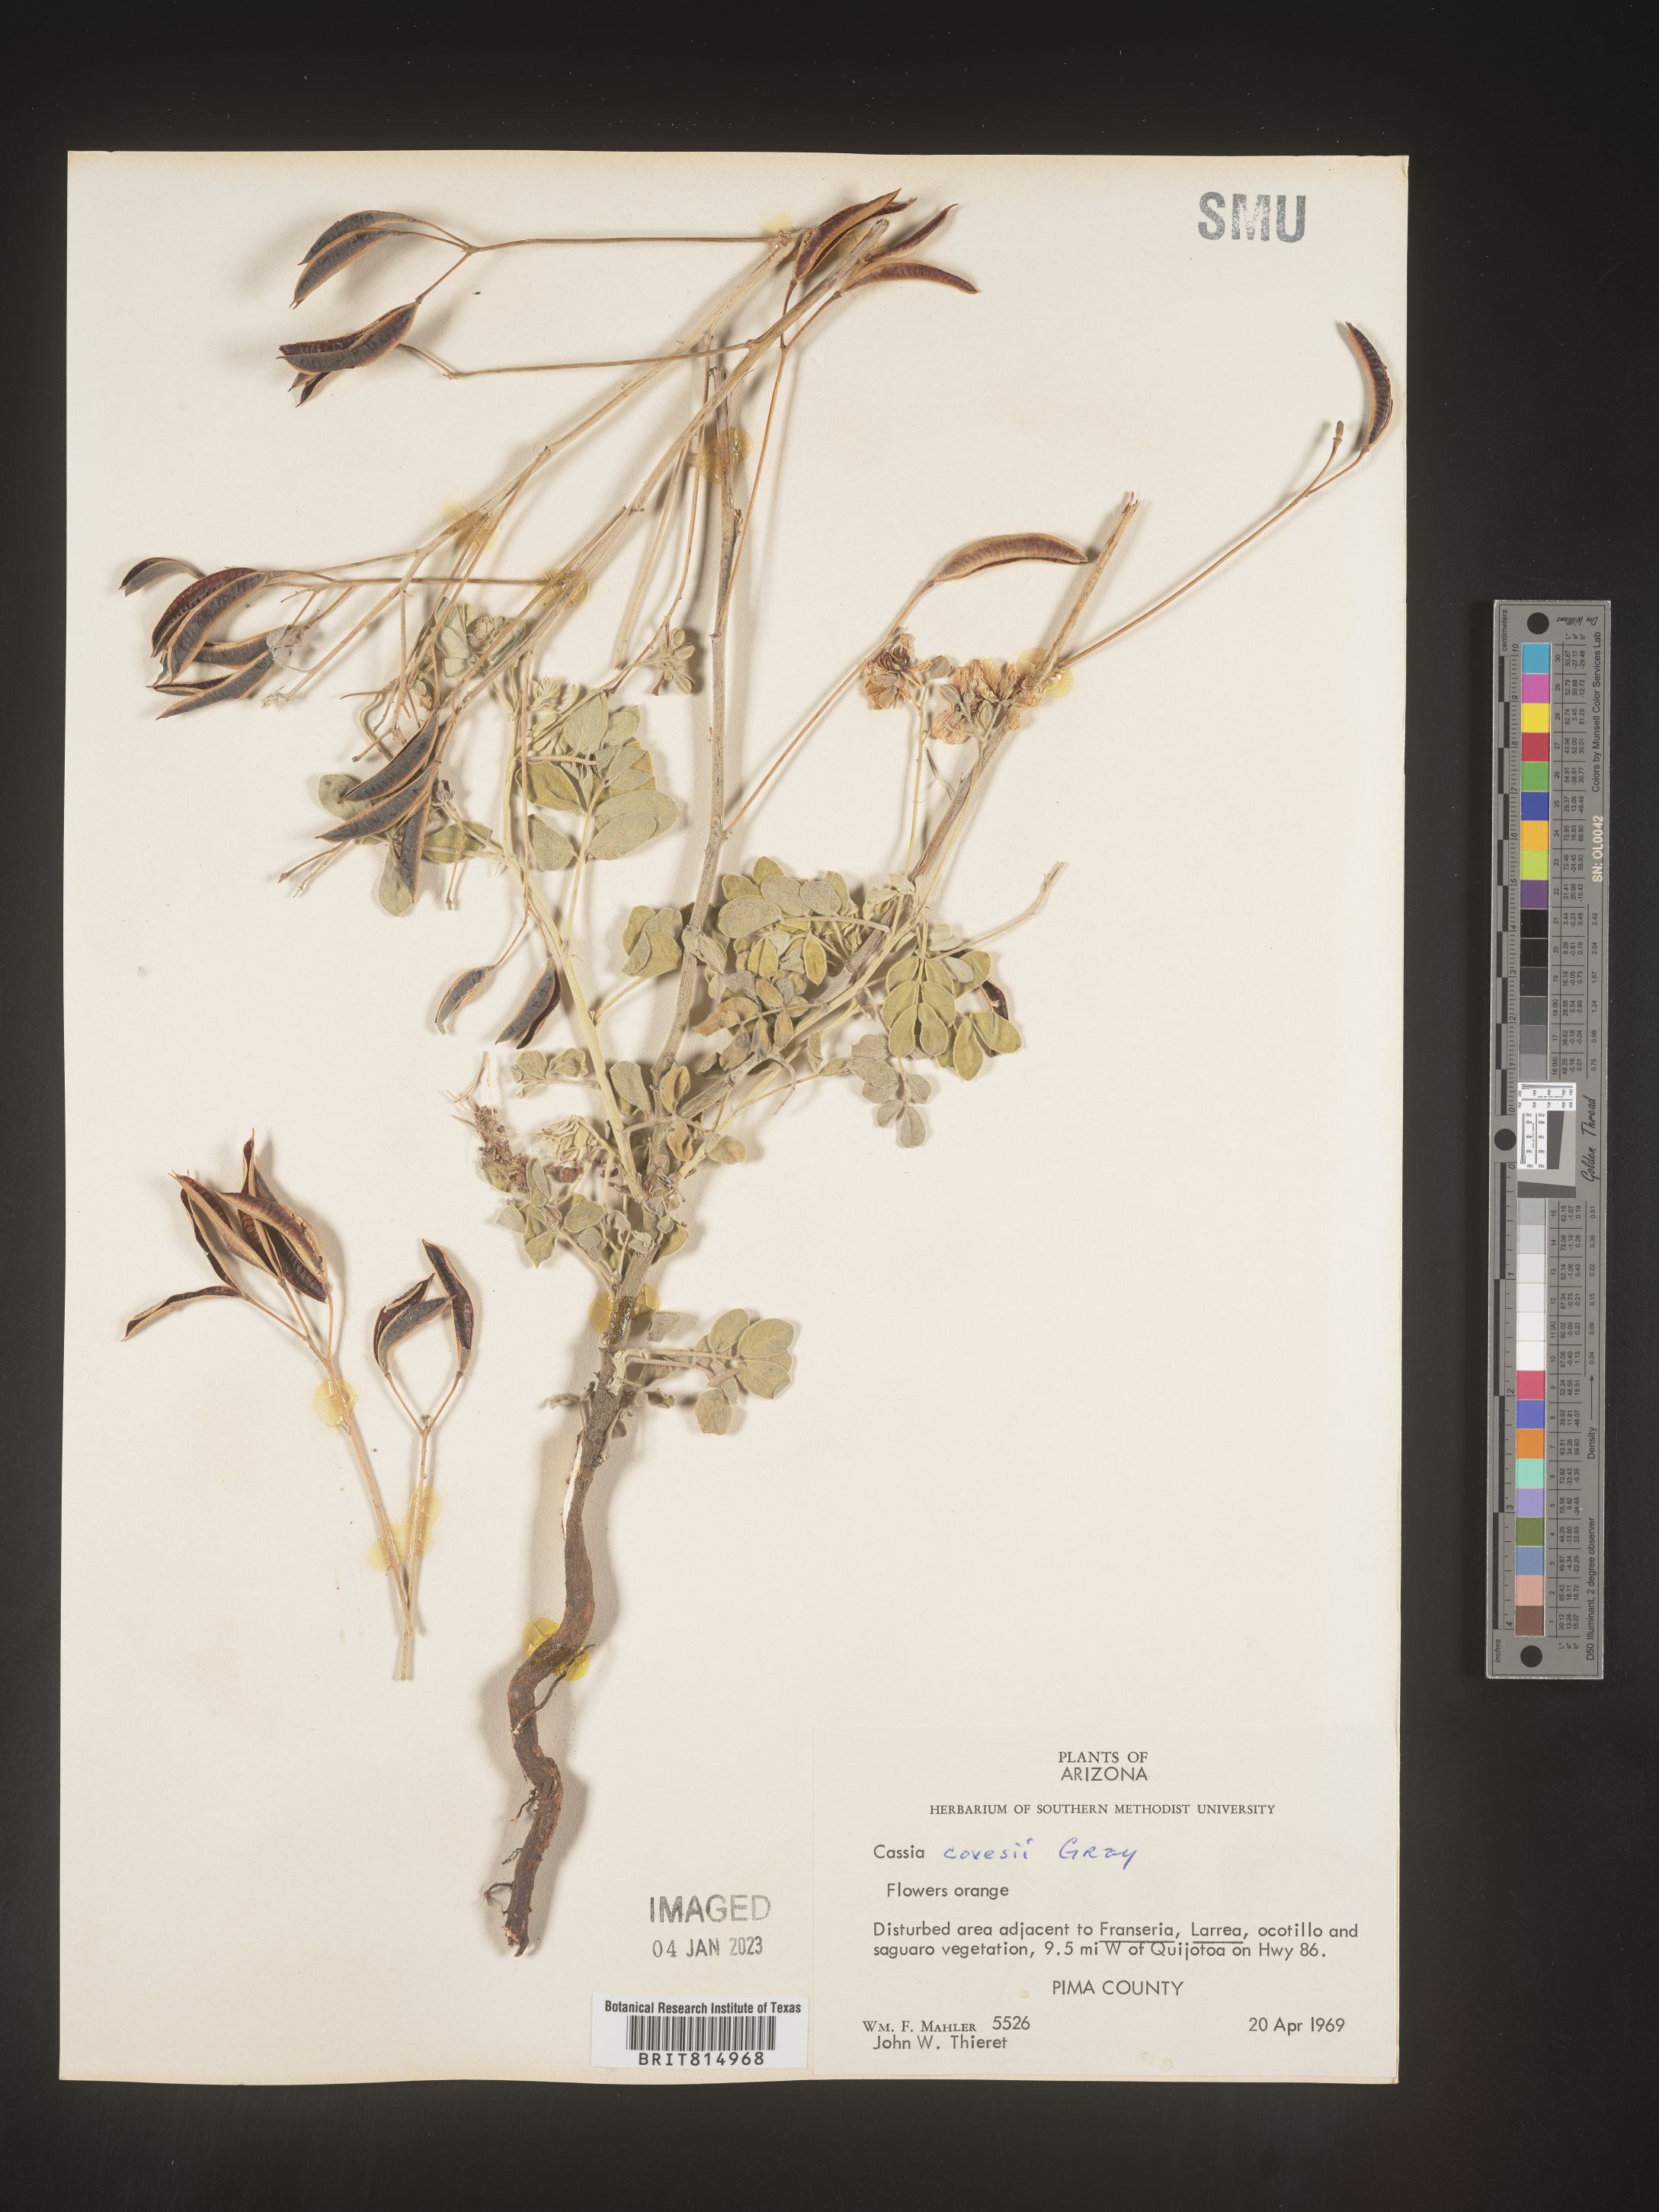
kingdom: Plantae
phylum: Tracheophyta
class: Magnoliopsida
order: Fabales
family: Fabaceae
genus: Cassia
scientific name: Cassia
